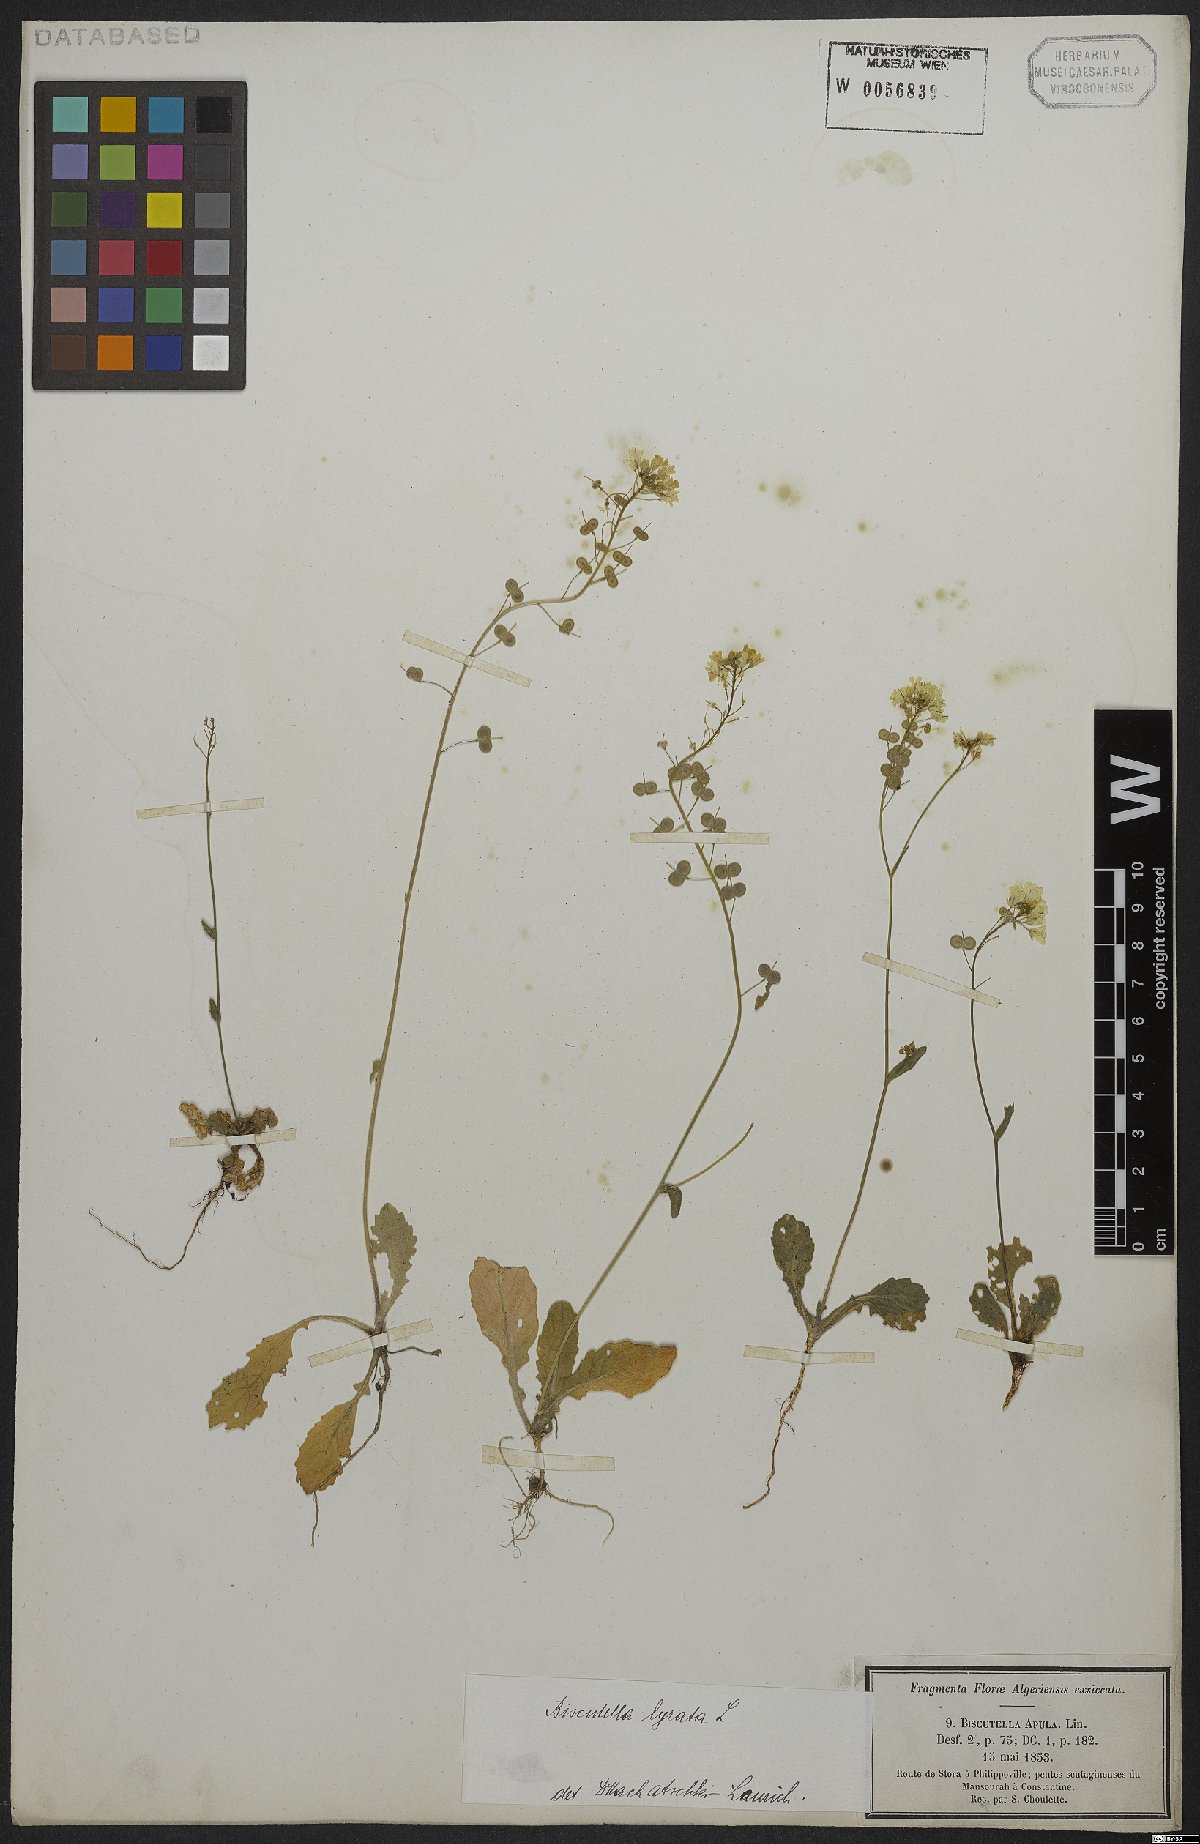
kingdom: Plantae
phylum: Tracheophyta
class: Magnoliopsida
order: Brassicales
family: Brassicaceae
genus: Biscutella
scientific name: Biscutella lyrata
